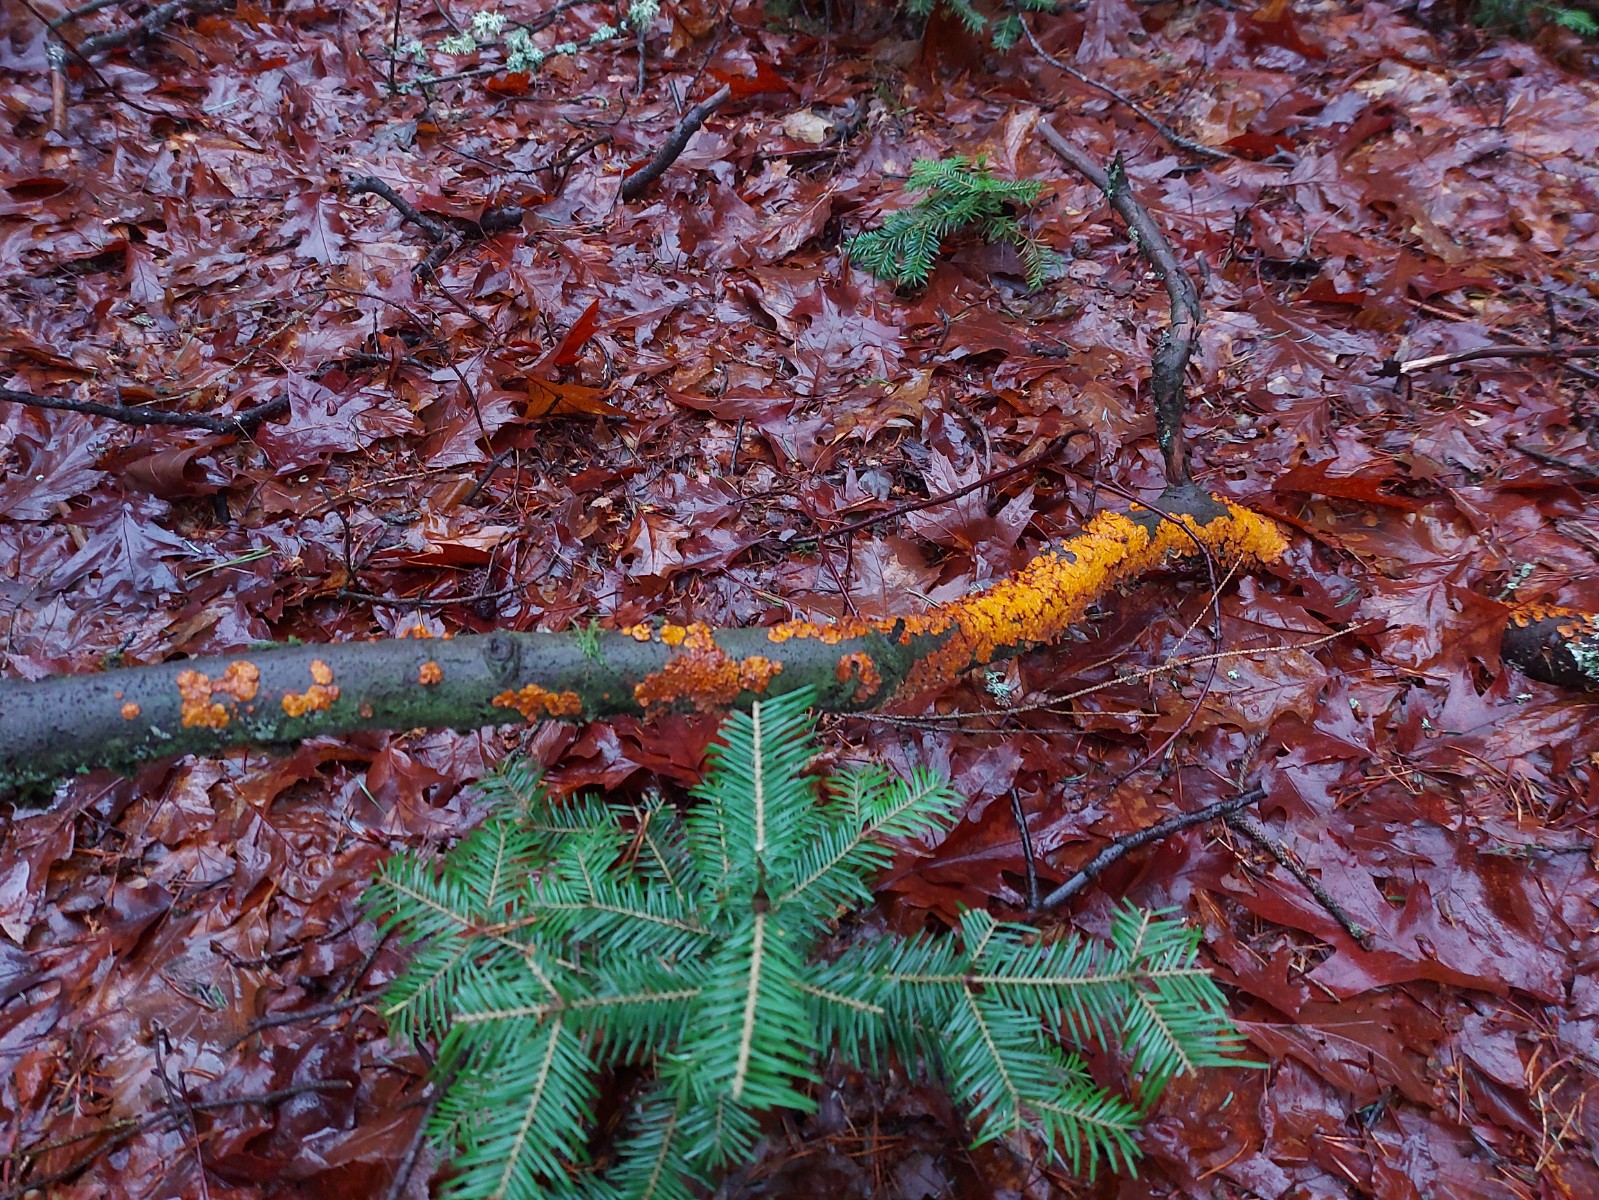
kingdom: Fungi
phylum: Basidiomycota
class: Agaricomycetes
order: Russulales
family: Stereaceae
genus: Stereum
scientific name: Stereum hirsutum
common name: håret lædersvamp
